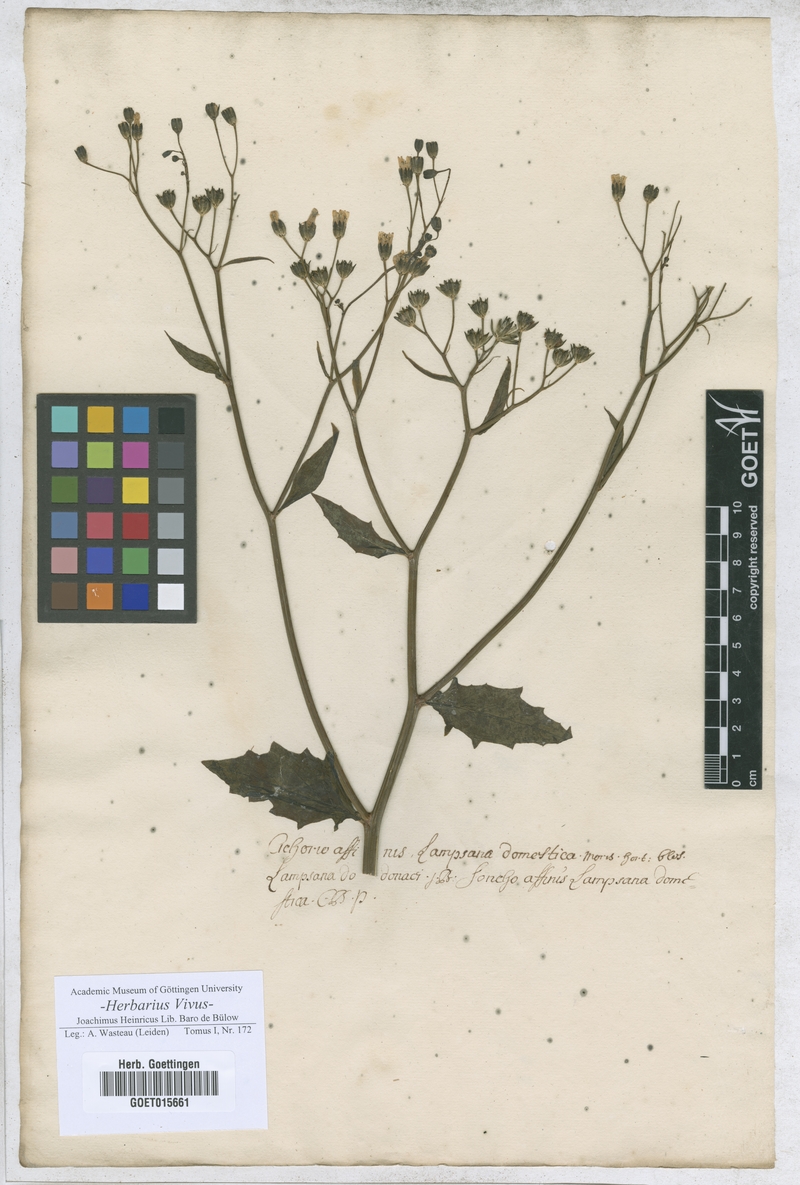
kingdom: Plantae
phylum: Tracheophyta
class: Magnoliopsida
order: Asterales
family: Asteraceae
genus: Lampsana
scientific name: Lampsana
